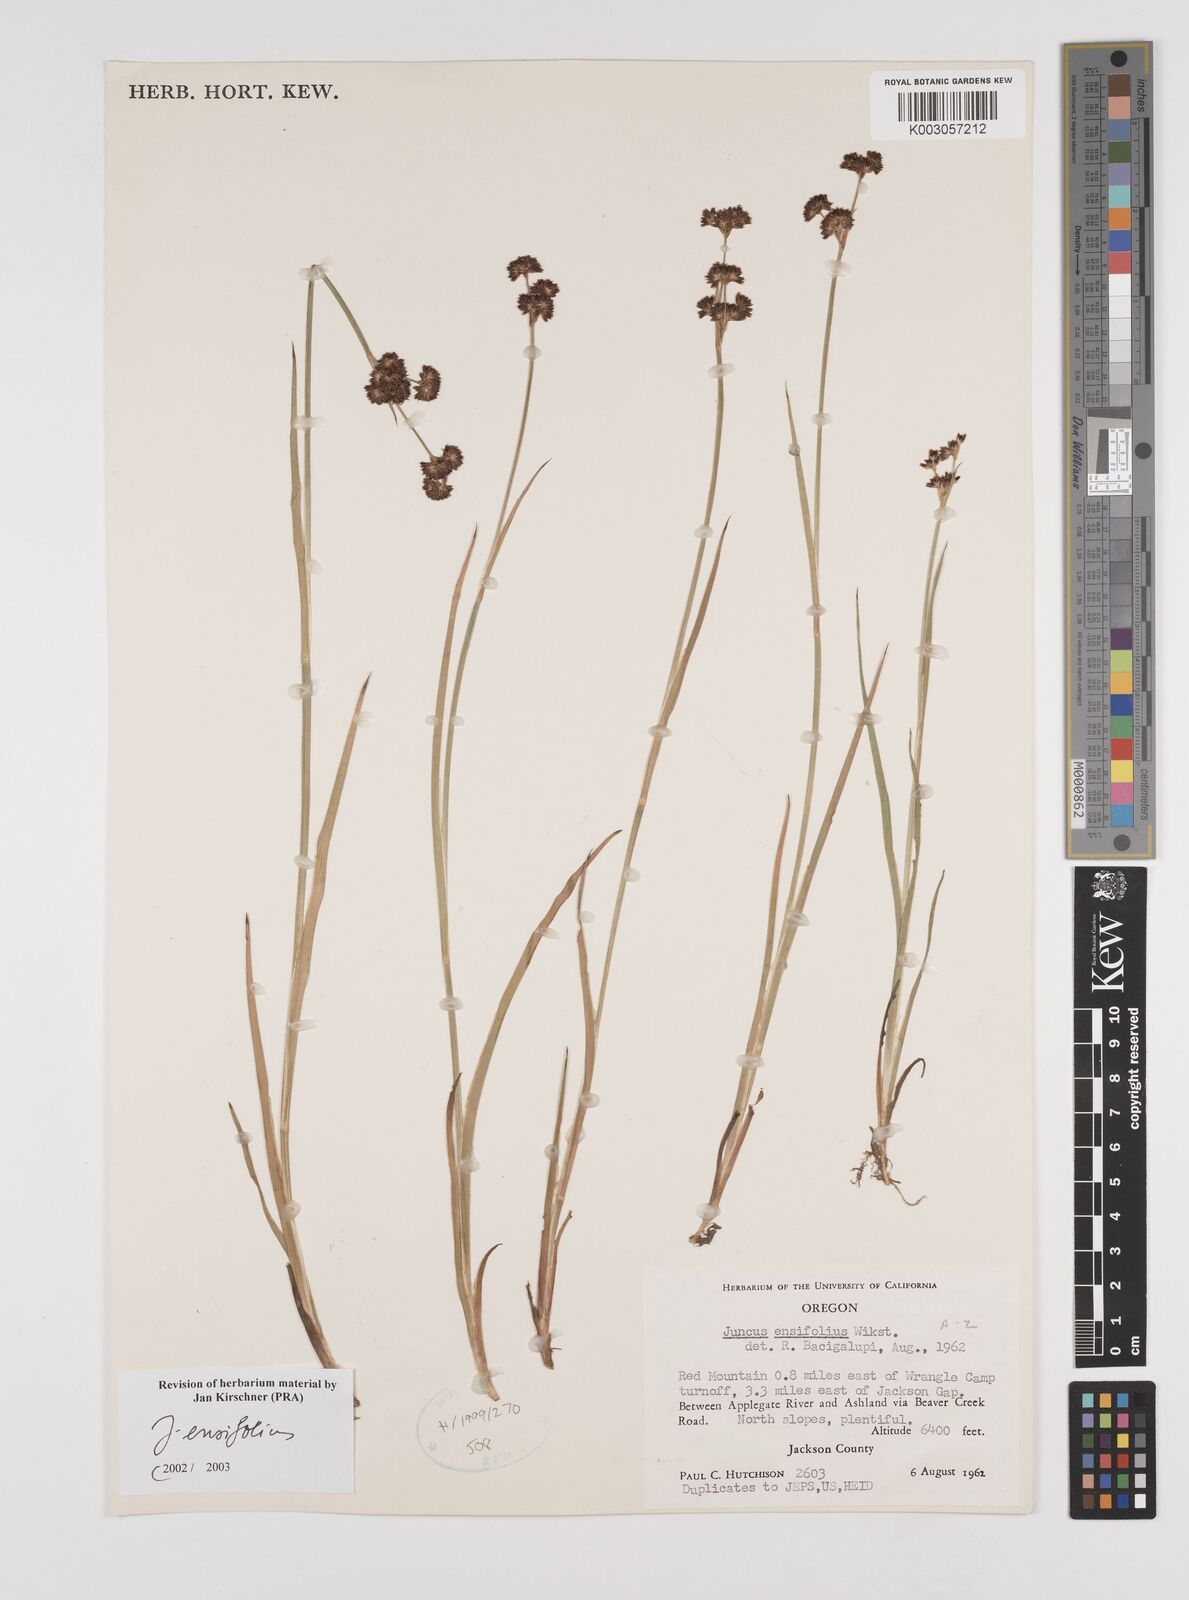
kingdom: Plantae
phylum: Tracheophyta
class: Liliopsida
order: Poales
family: Juncaceae
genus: Juncus
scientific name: Juncus ensifolius
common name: Sword-leaved rush
